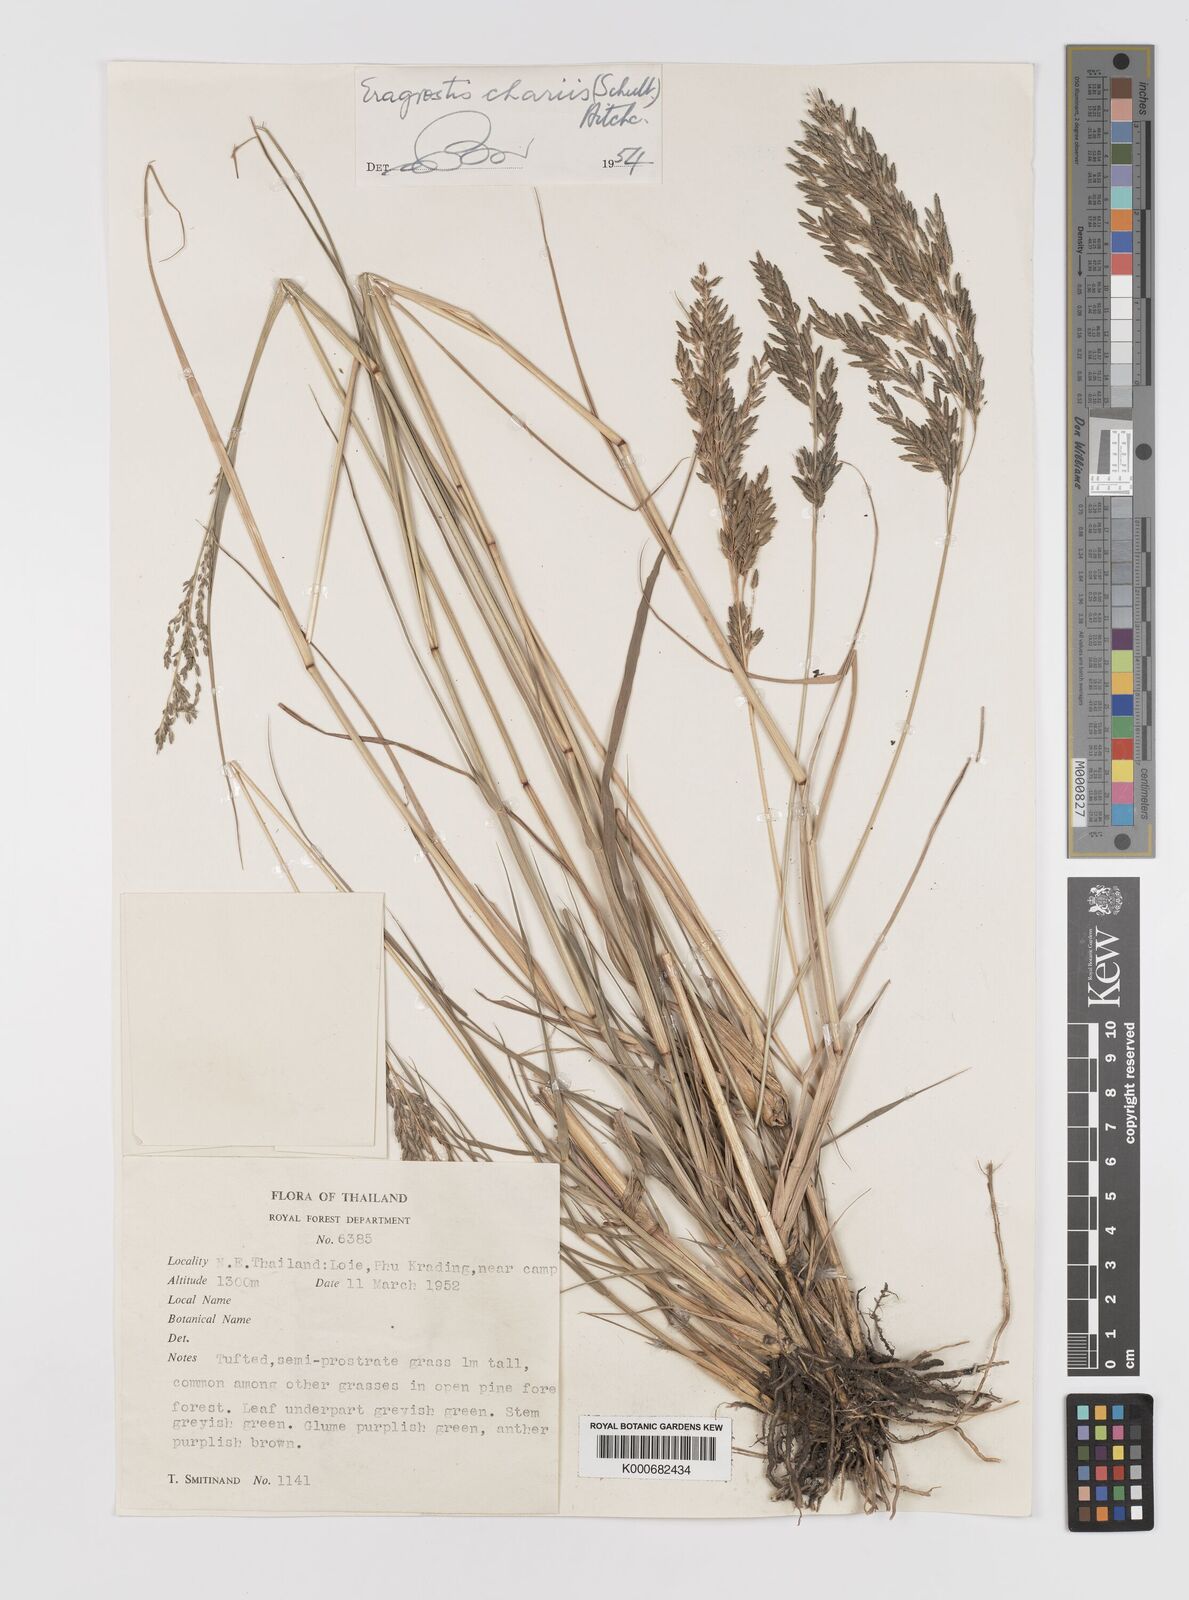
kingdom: Plantae
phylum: Tracheophyta
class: Liliopsida
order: Poales
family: Poaceae
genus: Eragrostis
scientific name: Eragrostis
